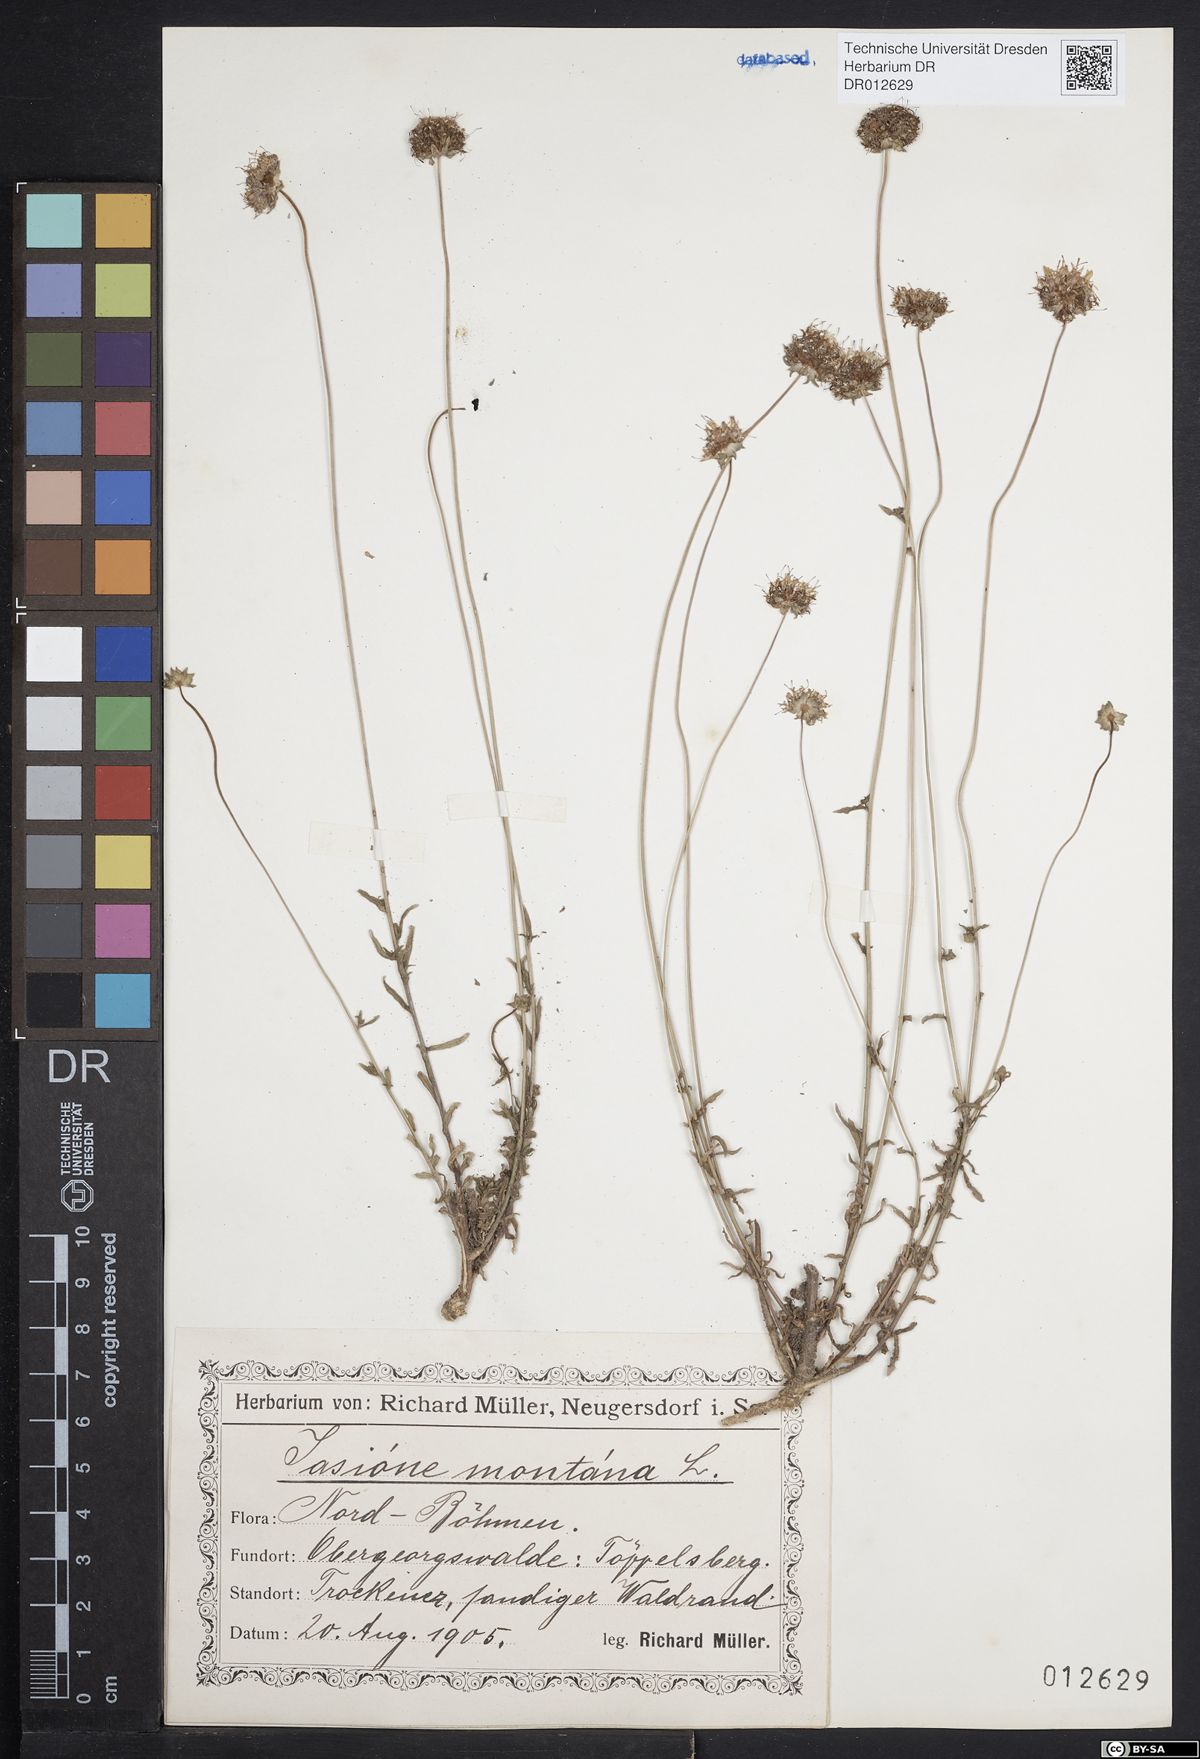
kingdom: Plantae
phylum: Tracheophyta
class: Magnoliopsida
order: Asterales
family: Campanulaceae
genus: Jasione
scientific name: Jasione montana
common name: Sheep's-bit
